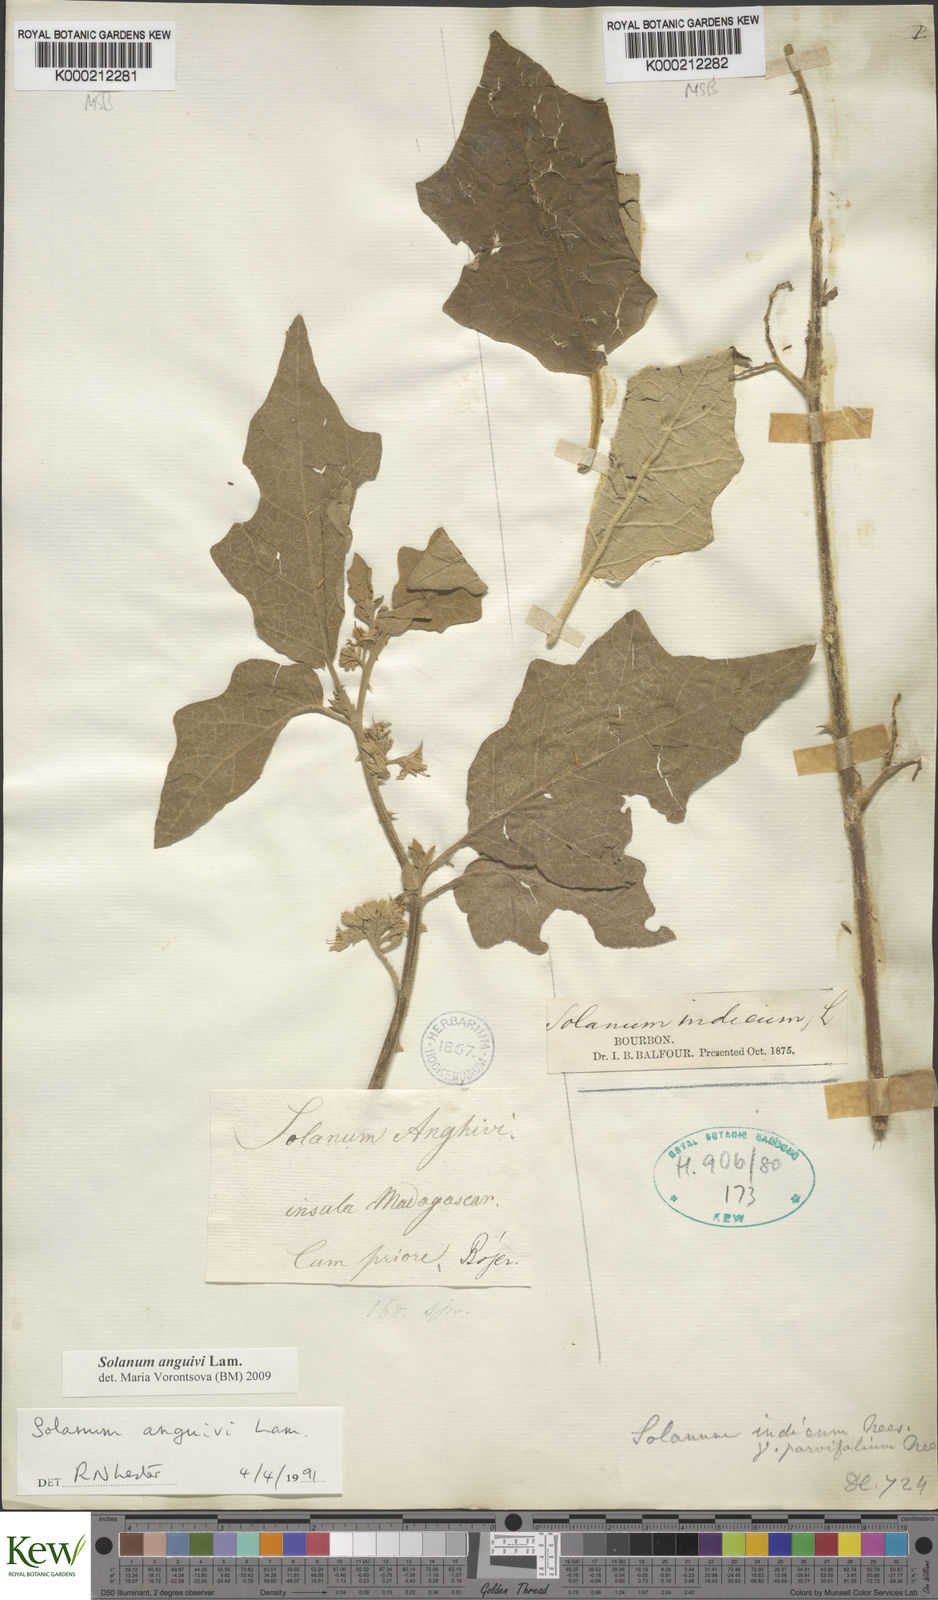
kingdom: Plantae
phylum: Tracheophyta
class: Magnoliopsida
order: Solanales
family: Solanaceae
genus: Solanum
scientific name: Solanum anguivi
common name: Forest bitterberry
